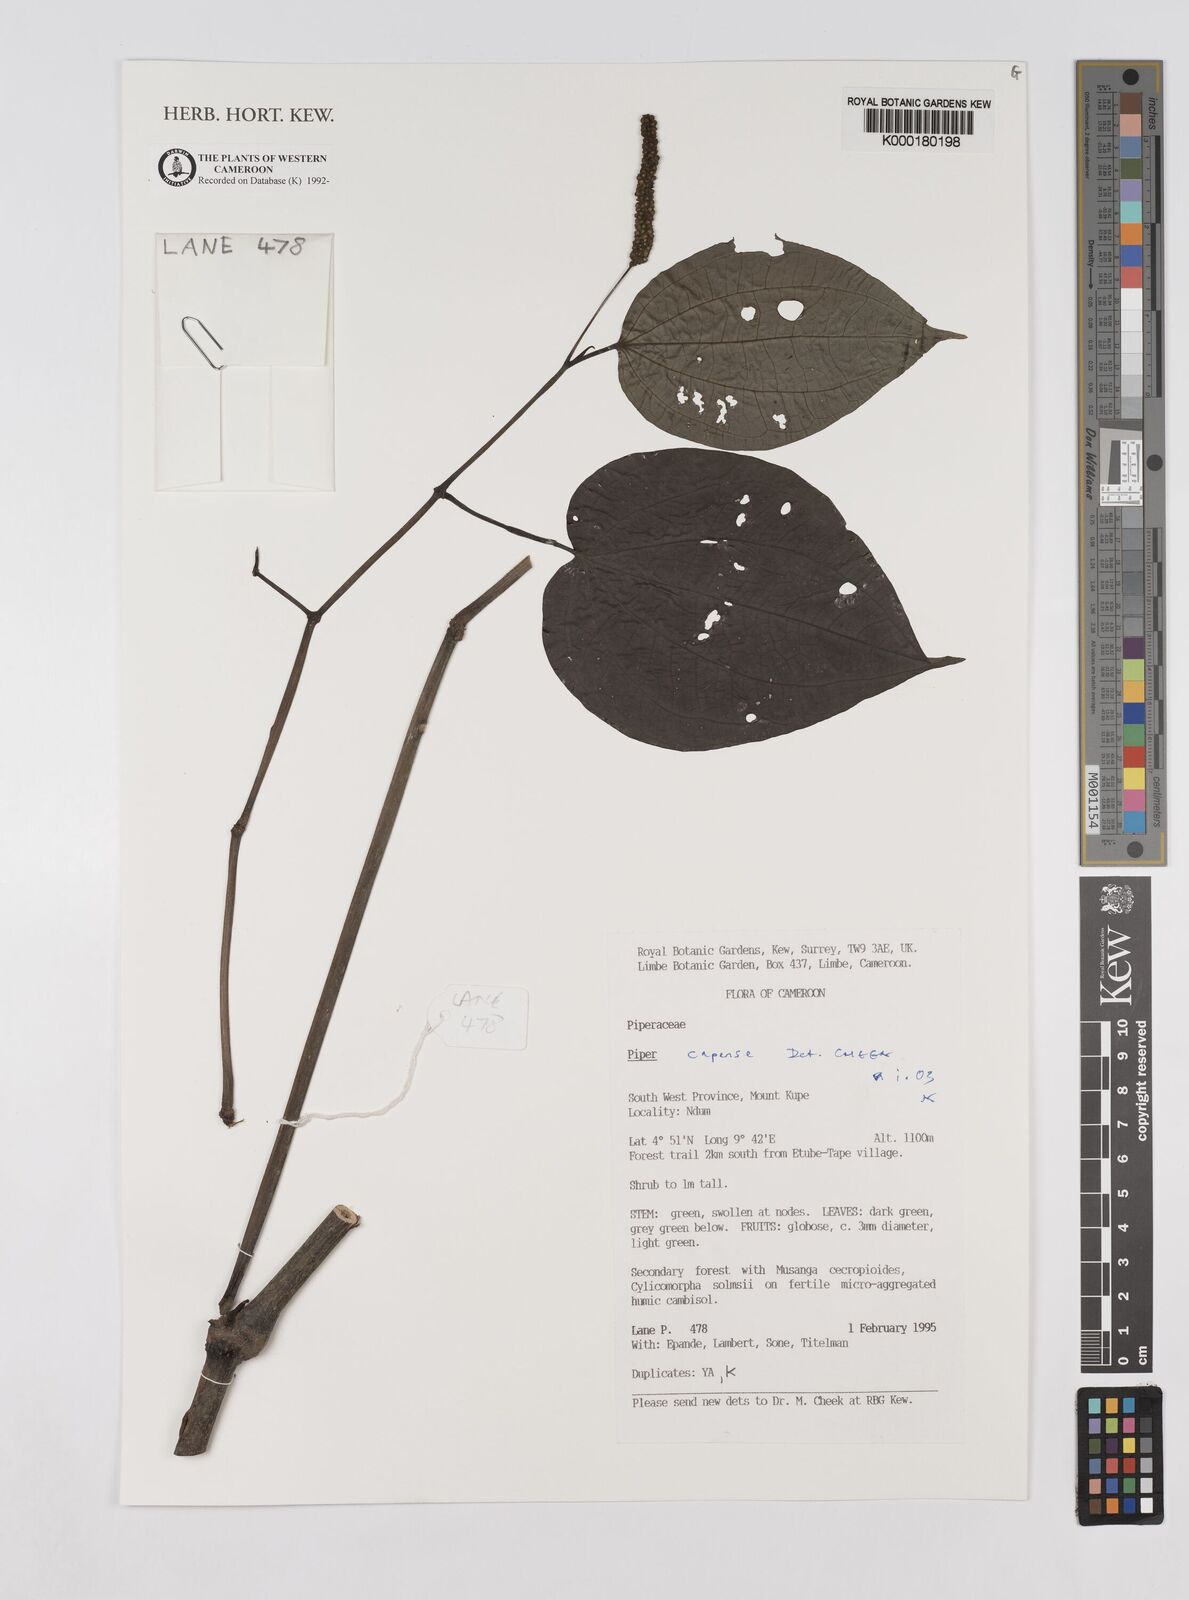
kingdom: Plantae
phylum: Tracheophyta
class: Magnoliopsida
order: Piperales
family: Piperaceae
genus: Piper
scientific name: Piper capense
